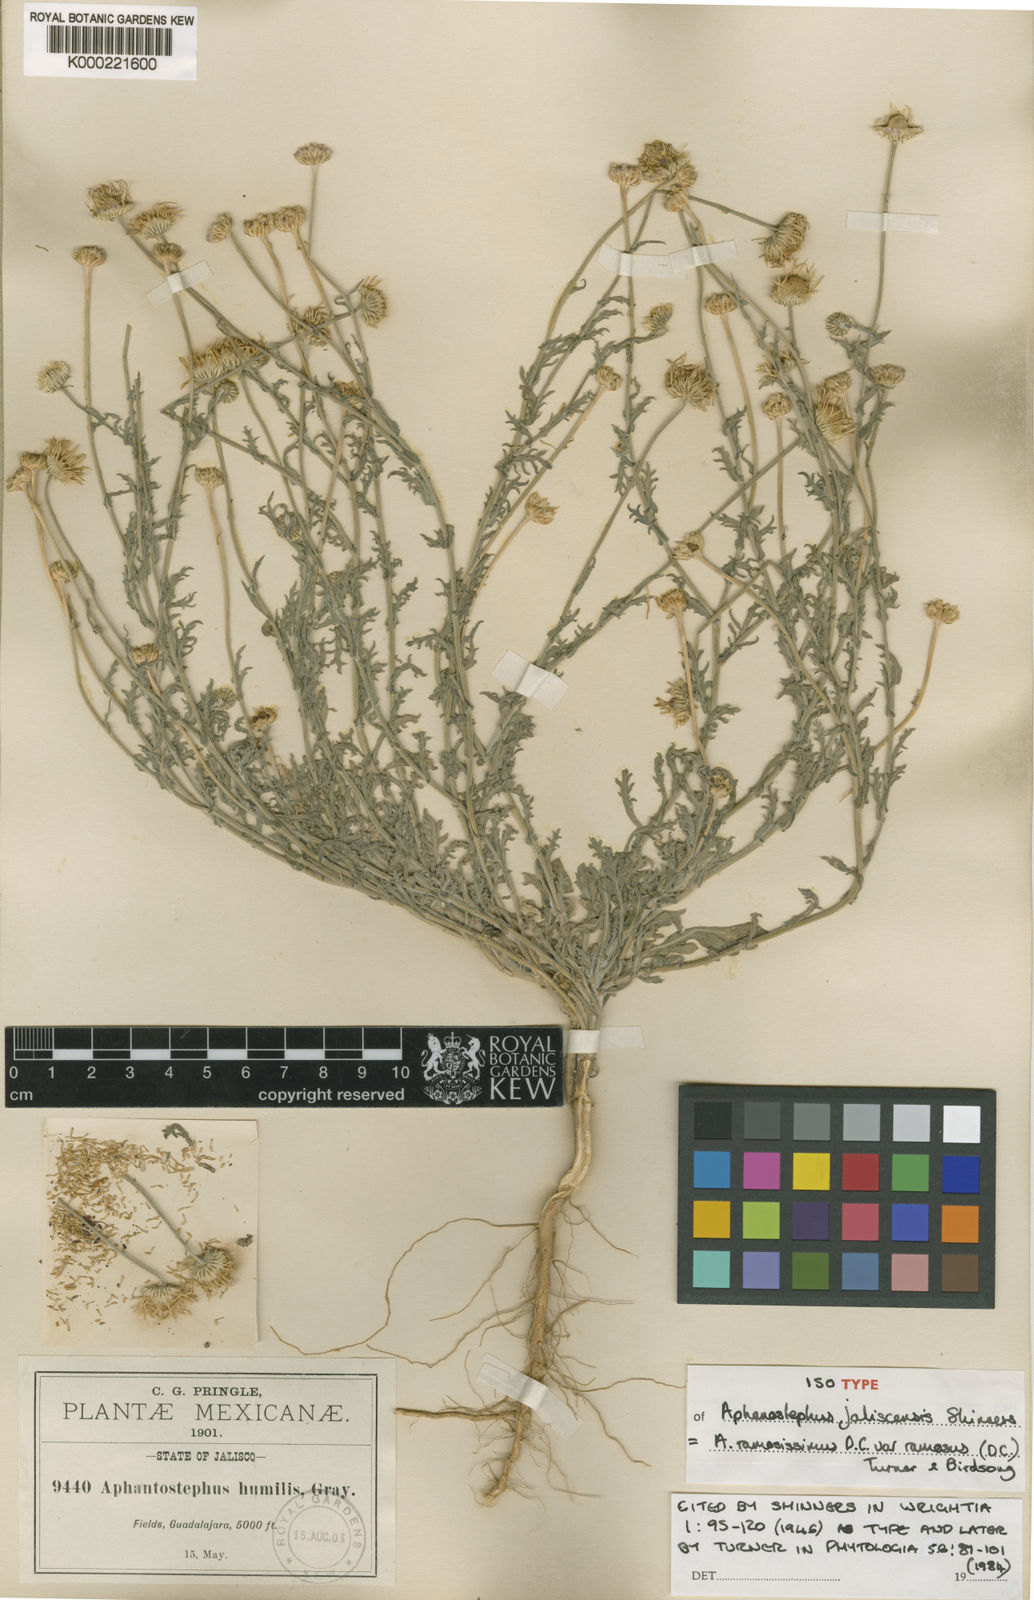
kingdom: Plantae
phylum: Tracheophyta
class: Magnoliopsida
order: Asterales
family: Asteraceae
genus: Aphanostephus
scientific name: Aphanostephus ramosissimus
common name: Plains lazy daisy
